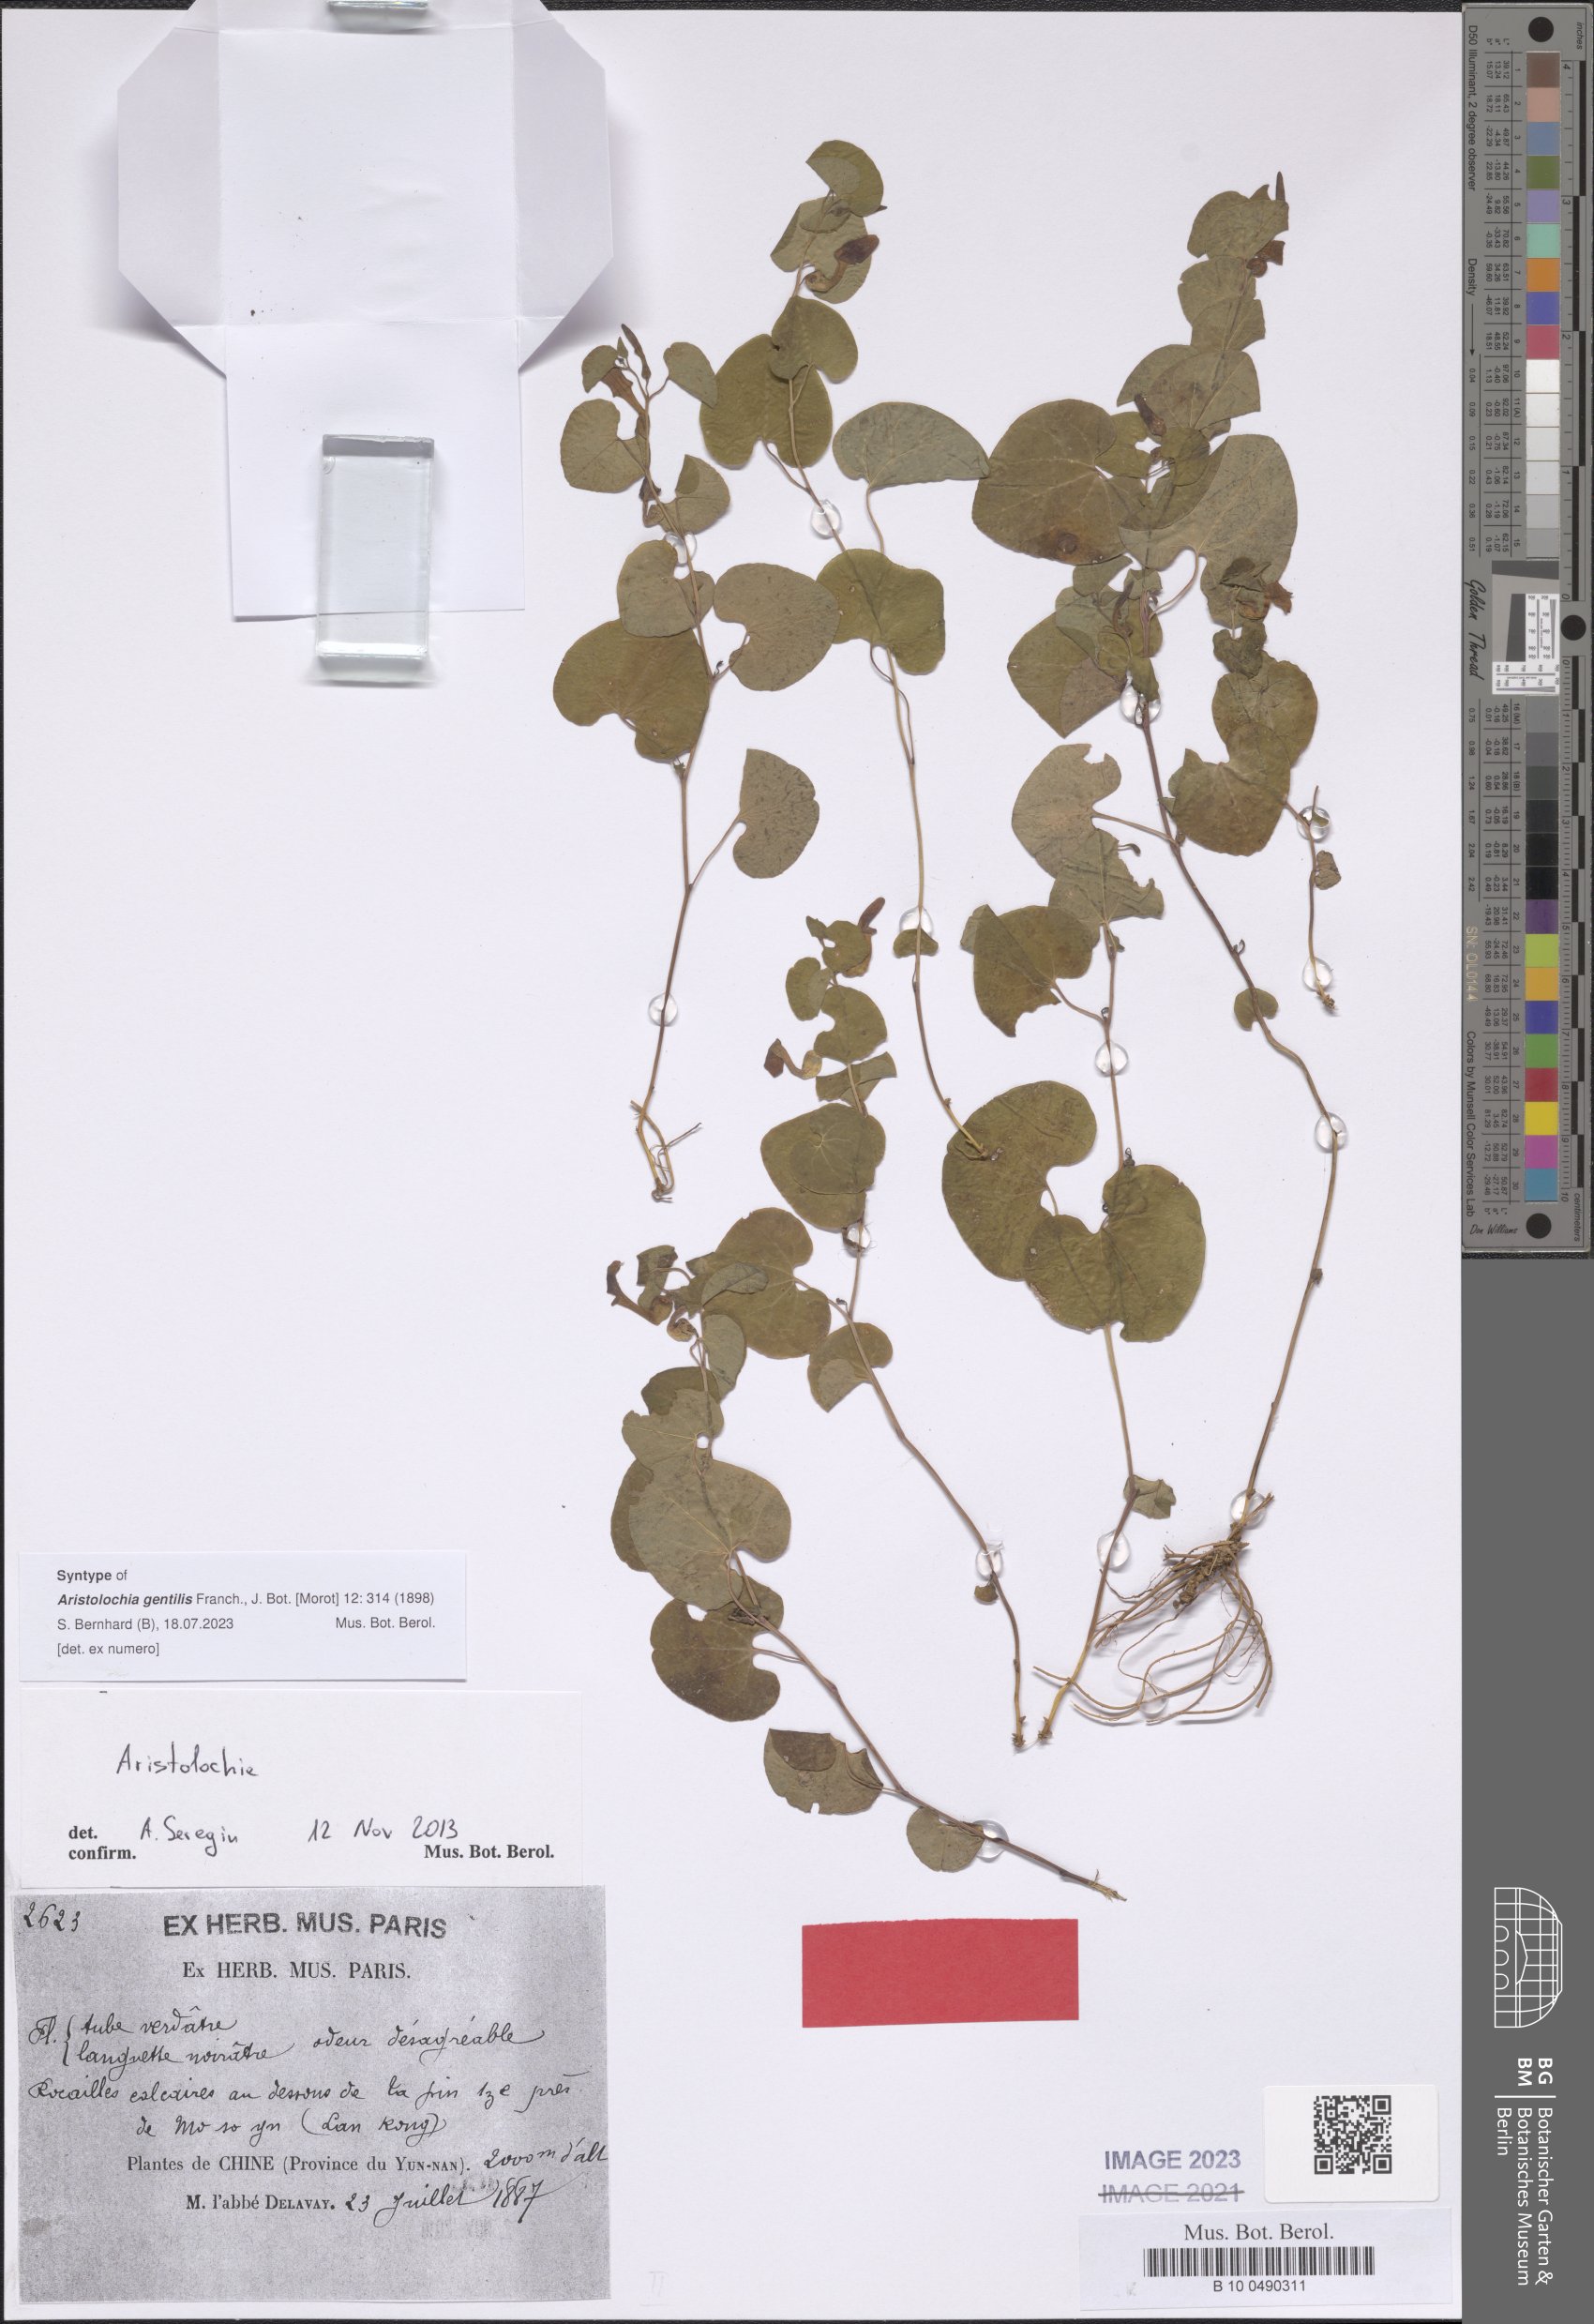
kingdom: Plantae
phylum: Tracheophyta
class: Magnoliopsida
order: Piperales
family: Aristolochiaceae
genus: Aristolochia
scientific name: Aristolochia tubiflora
